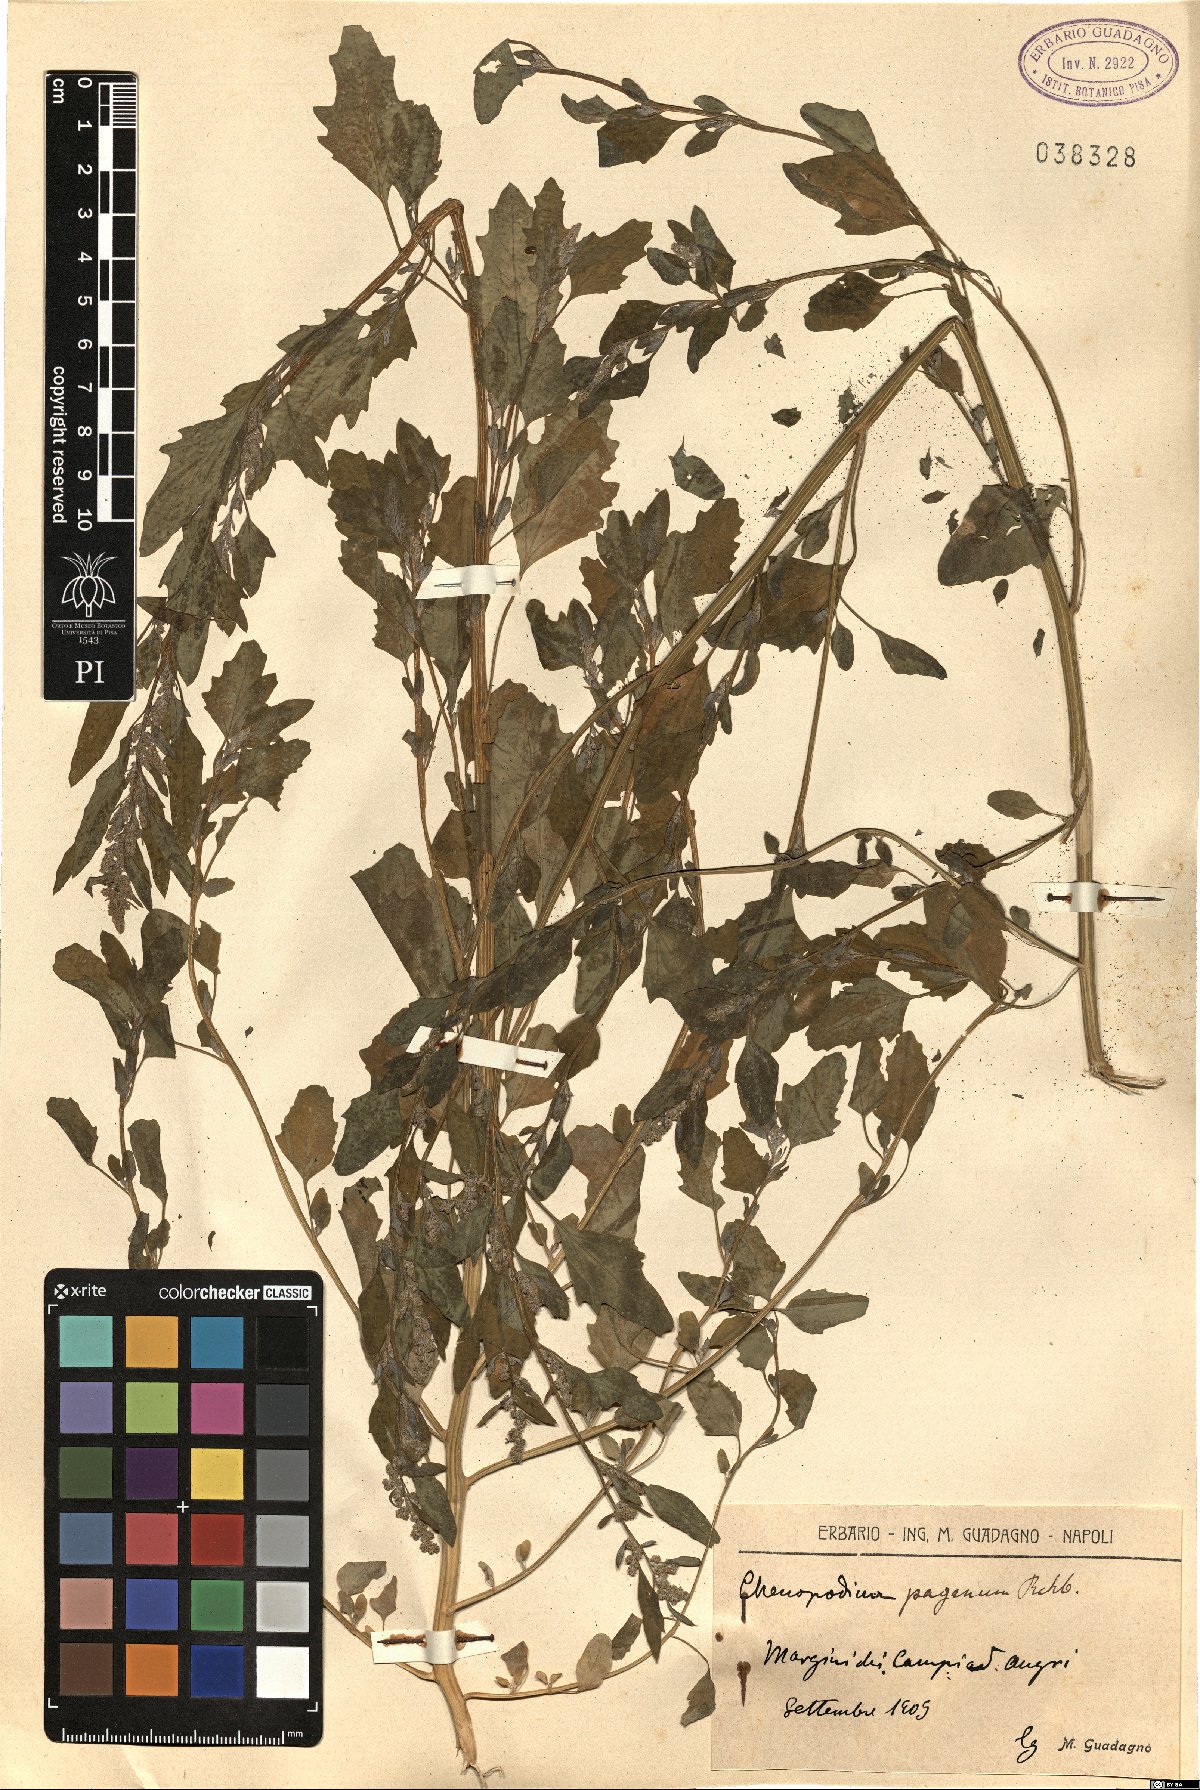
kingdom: Plantae
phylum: Tracheophyta
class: Magnoliopsida
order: Caryophyllales
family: Amaranthaceae
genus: Chenopodium
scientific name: Chenopodium album
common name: Fat-hen
